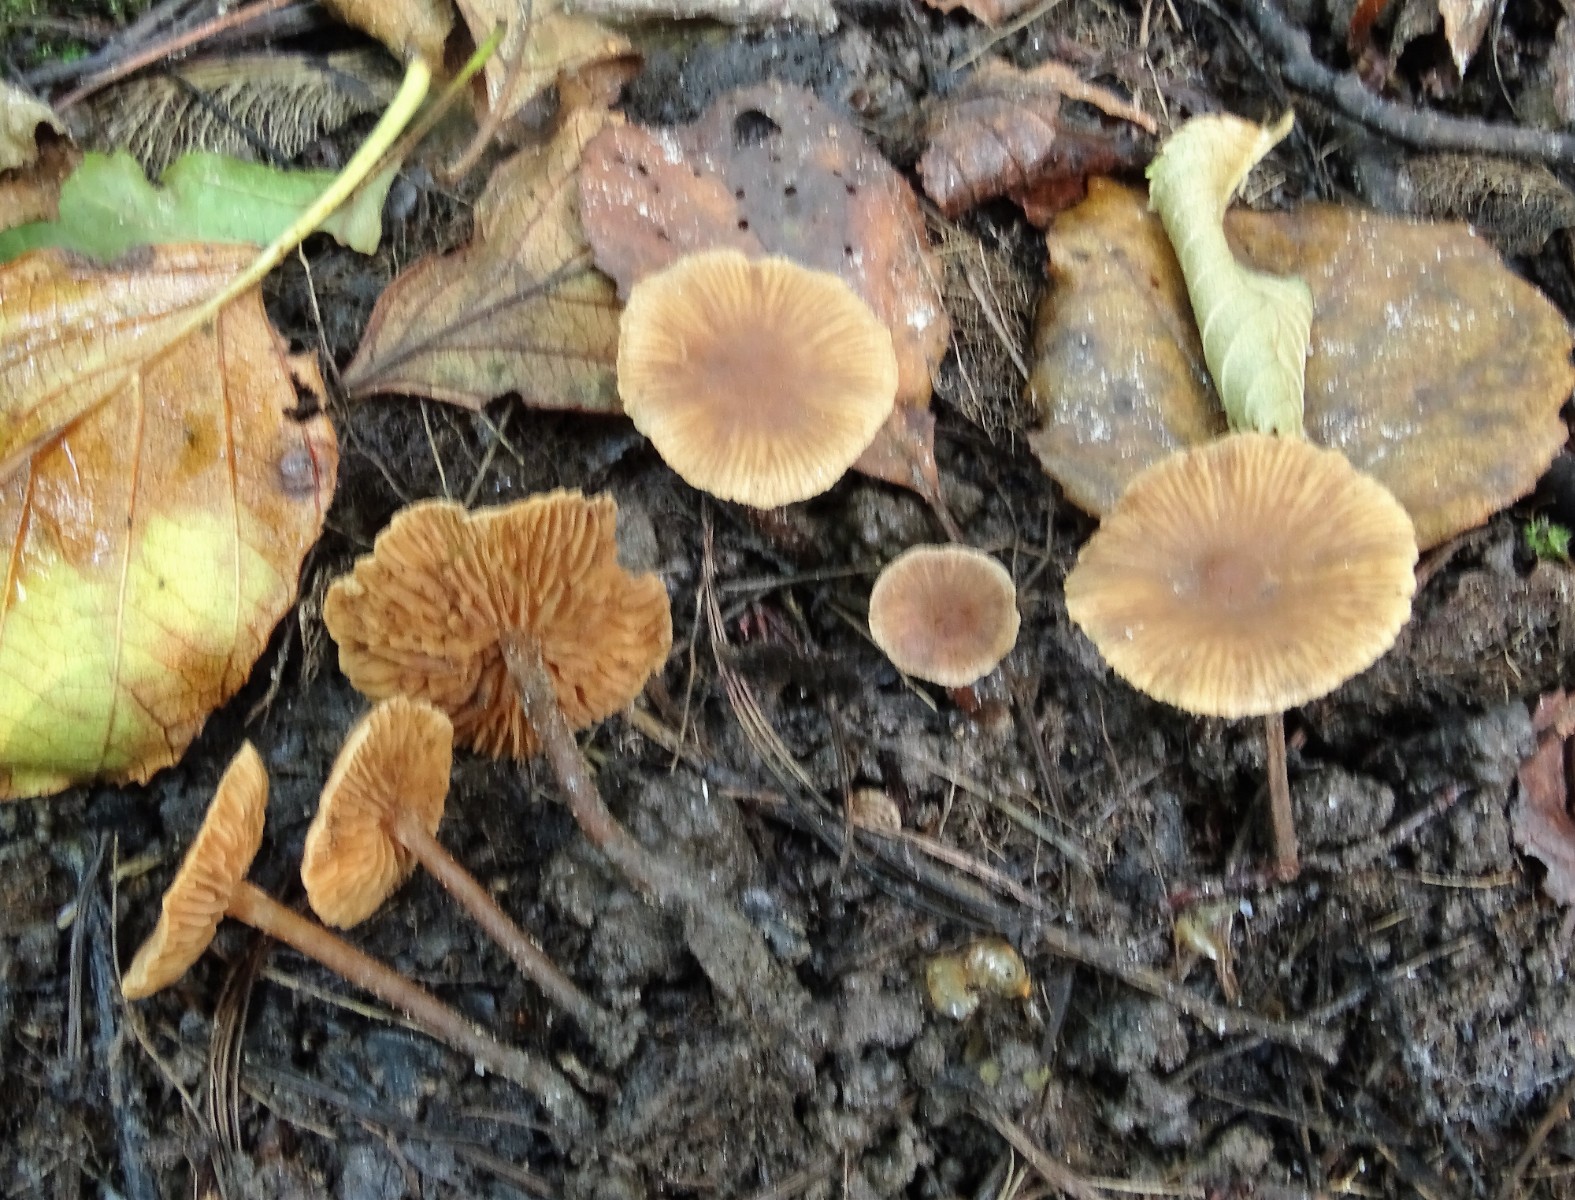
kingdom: Fungi
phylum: Basidiomycota
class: Agaricomycetes
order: Agaricales
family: Hymenogastraceae
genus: Naucoria
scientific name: Naucoria
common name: knaphat
